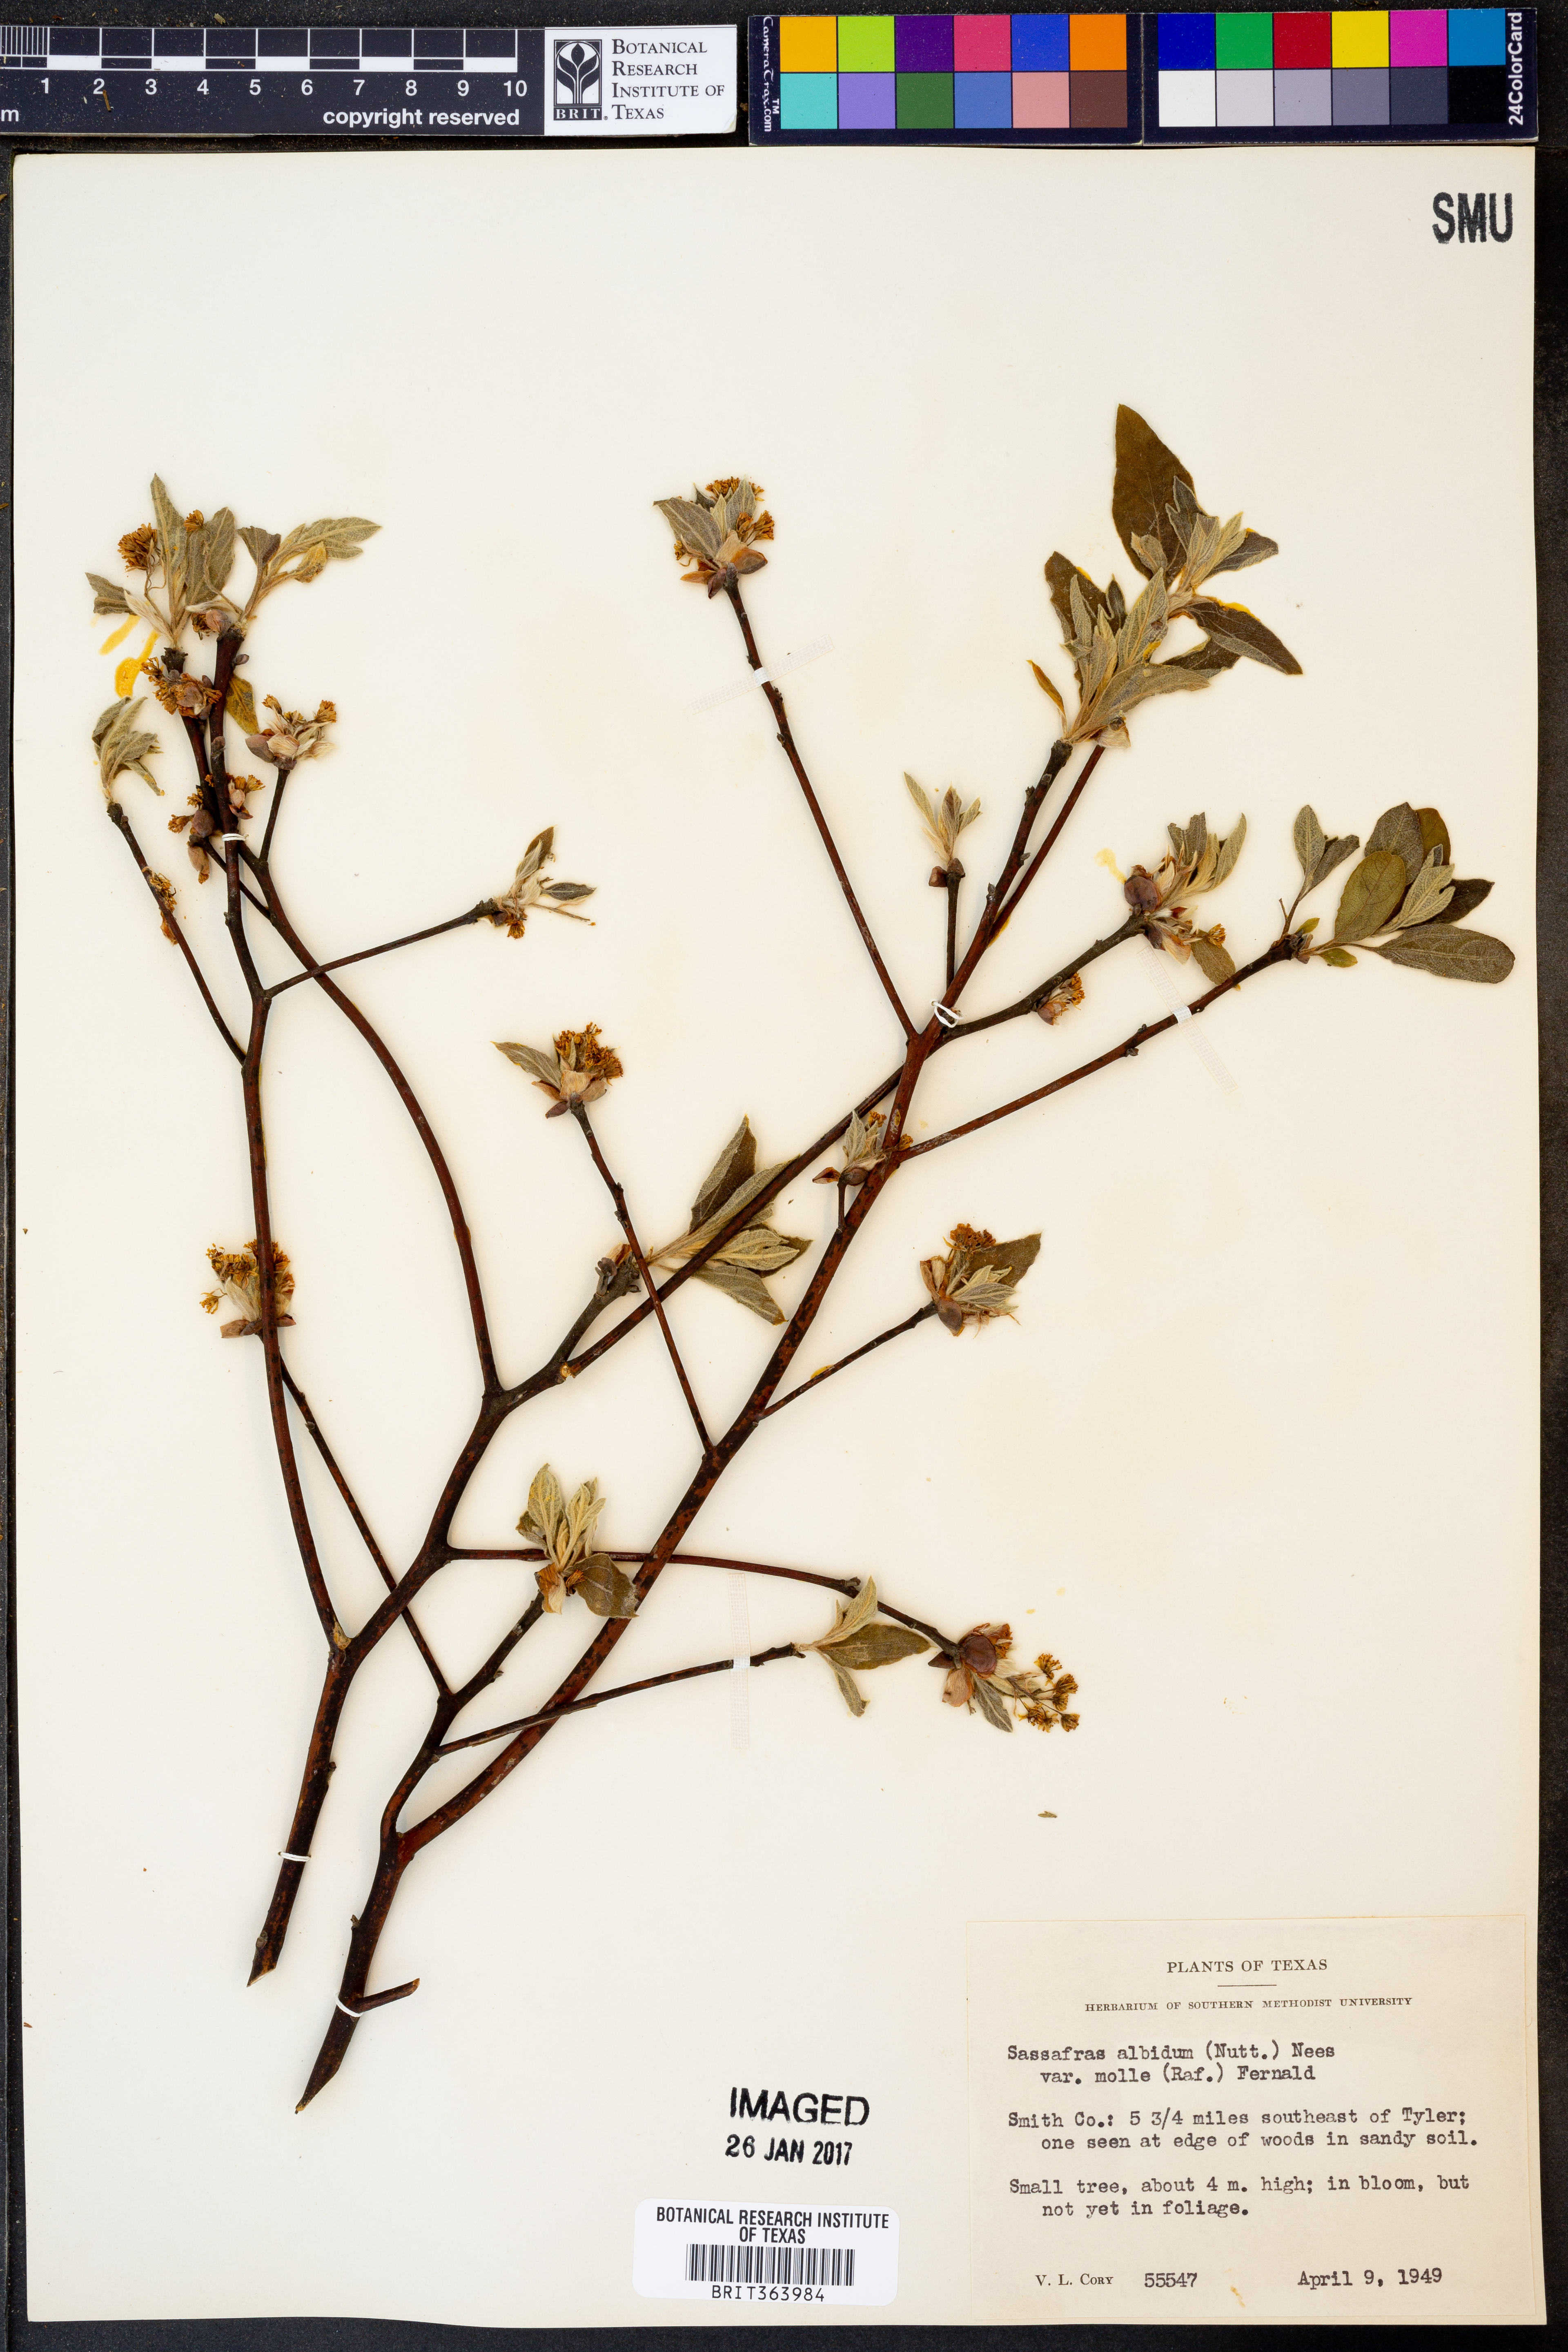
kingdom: Plantae
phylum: Tracheophyta
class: Magnoliopsida
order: Laurales
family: Lauraceae
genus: Sassafras
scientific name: Sassafras albidum
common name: Sassafras
